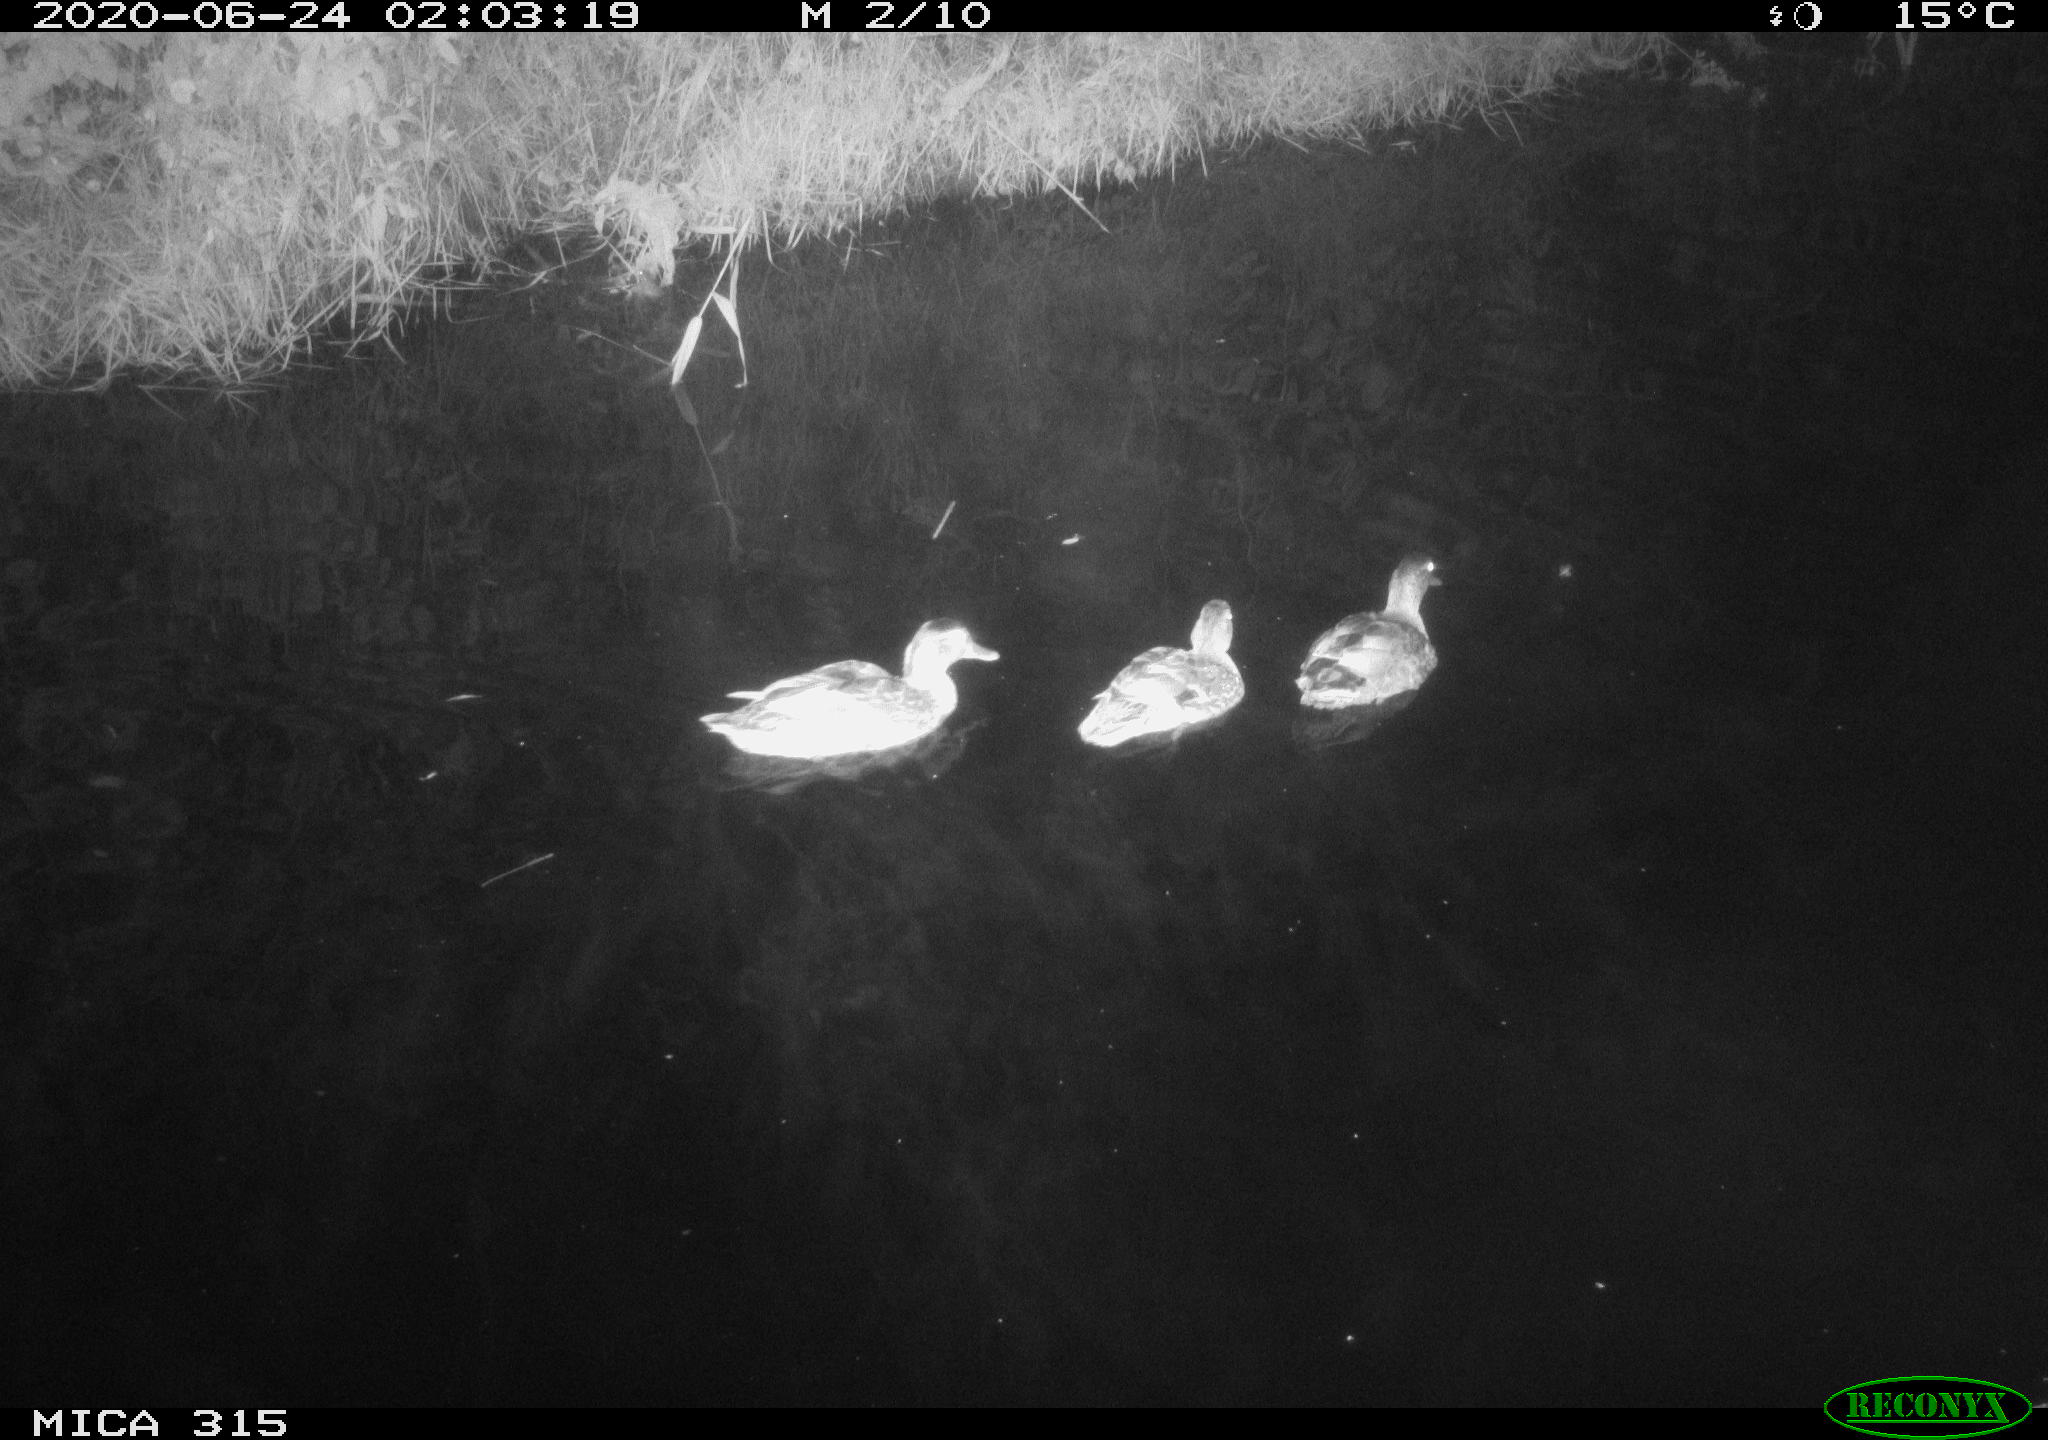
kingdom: Animalia
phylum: Chordata
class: Aves
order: Anseriformes
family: Anatidae
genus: Anas
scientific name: Anas platyrhynchos
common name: Mallard
